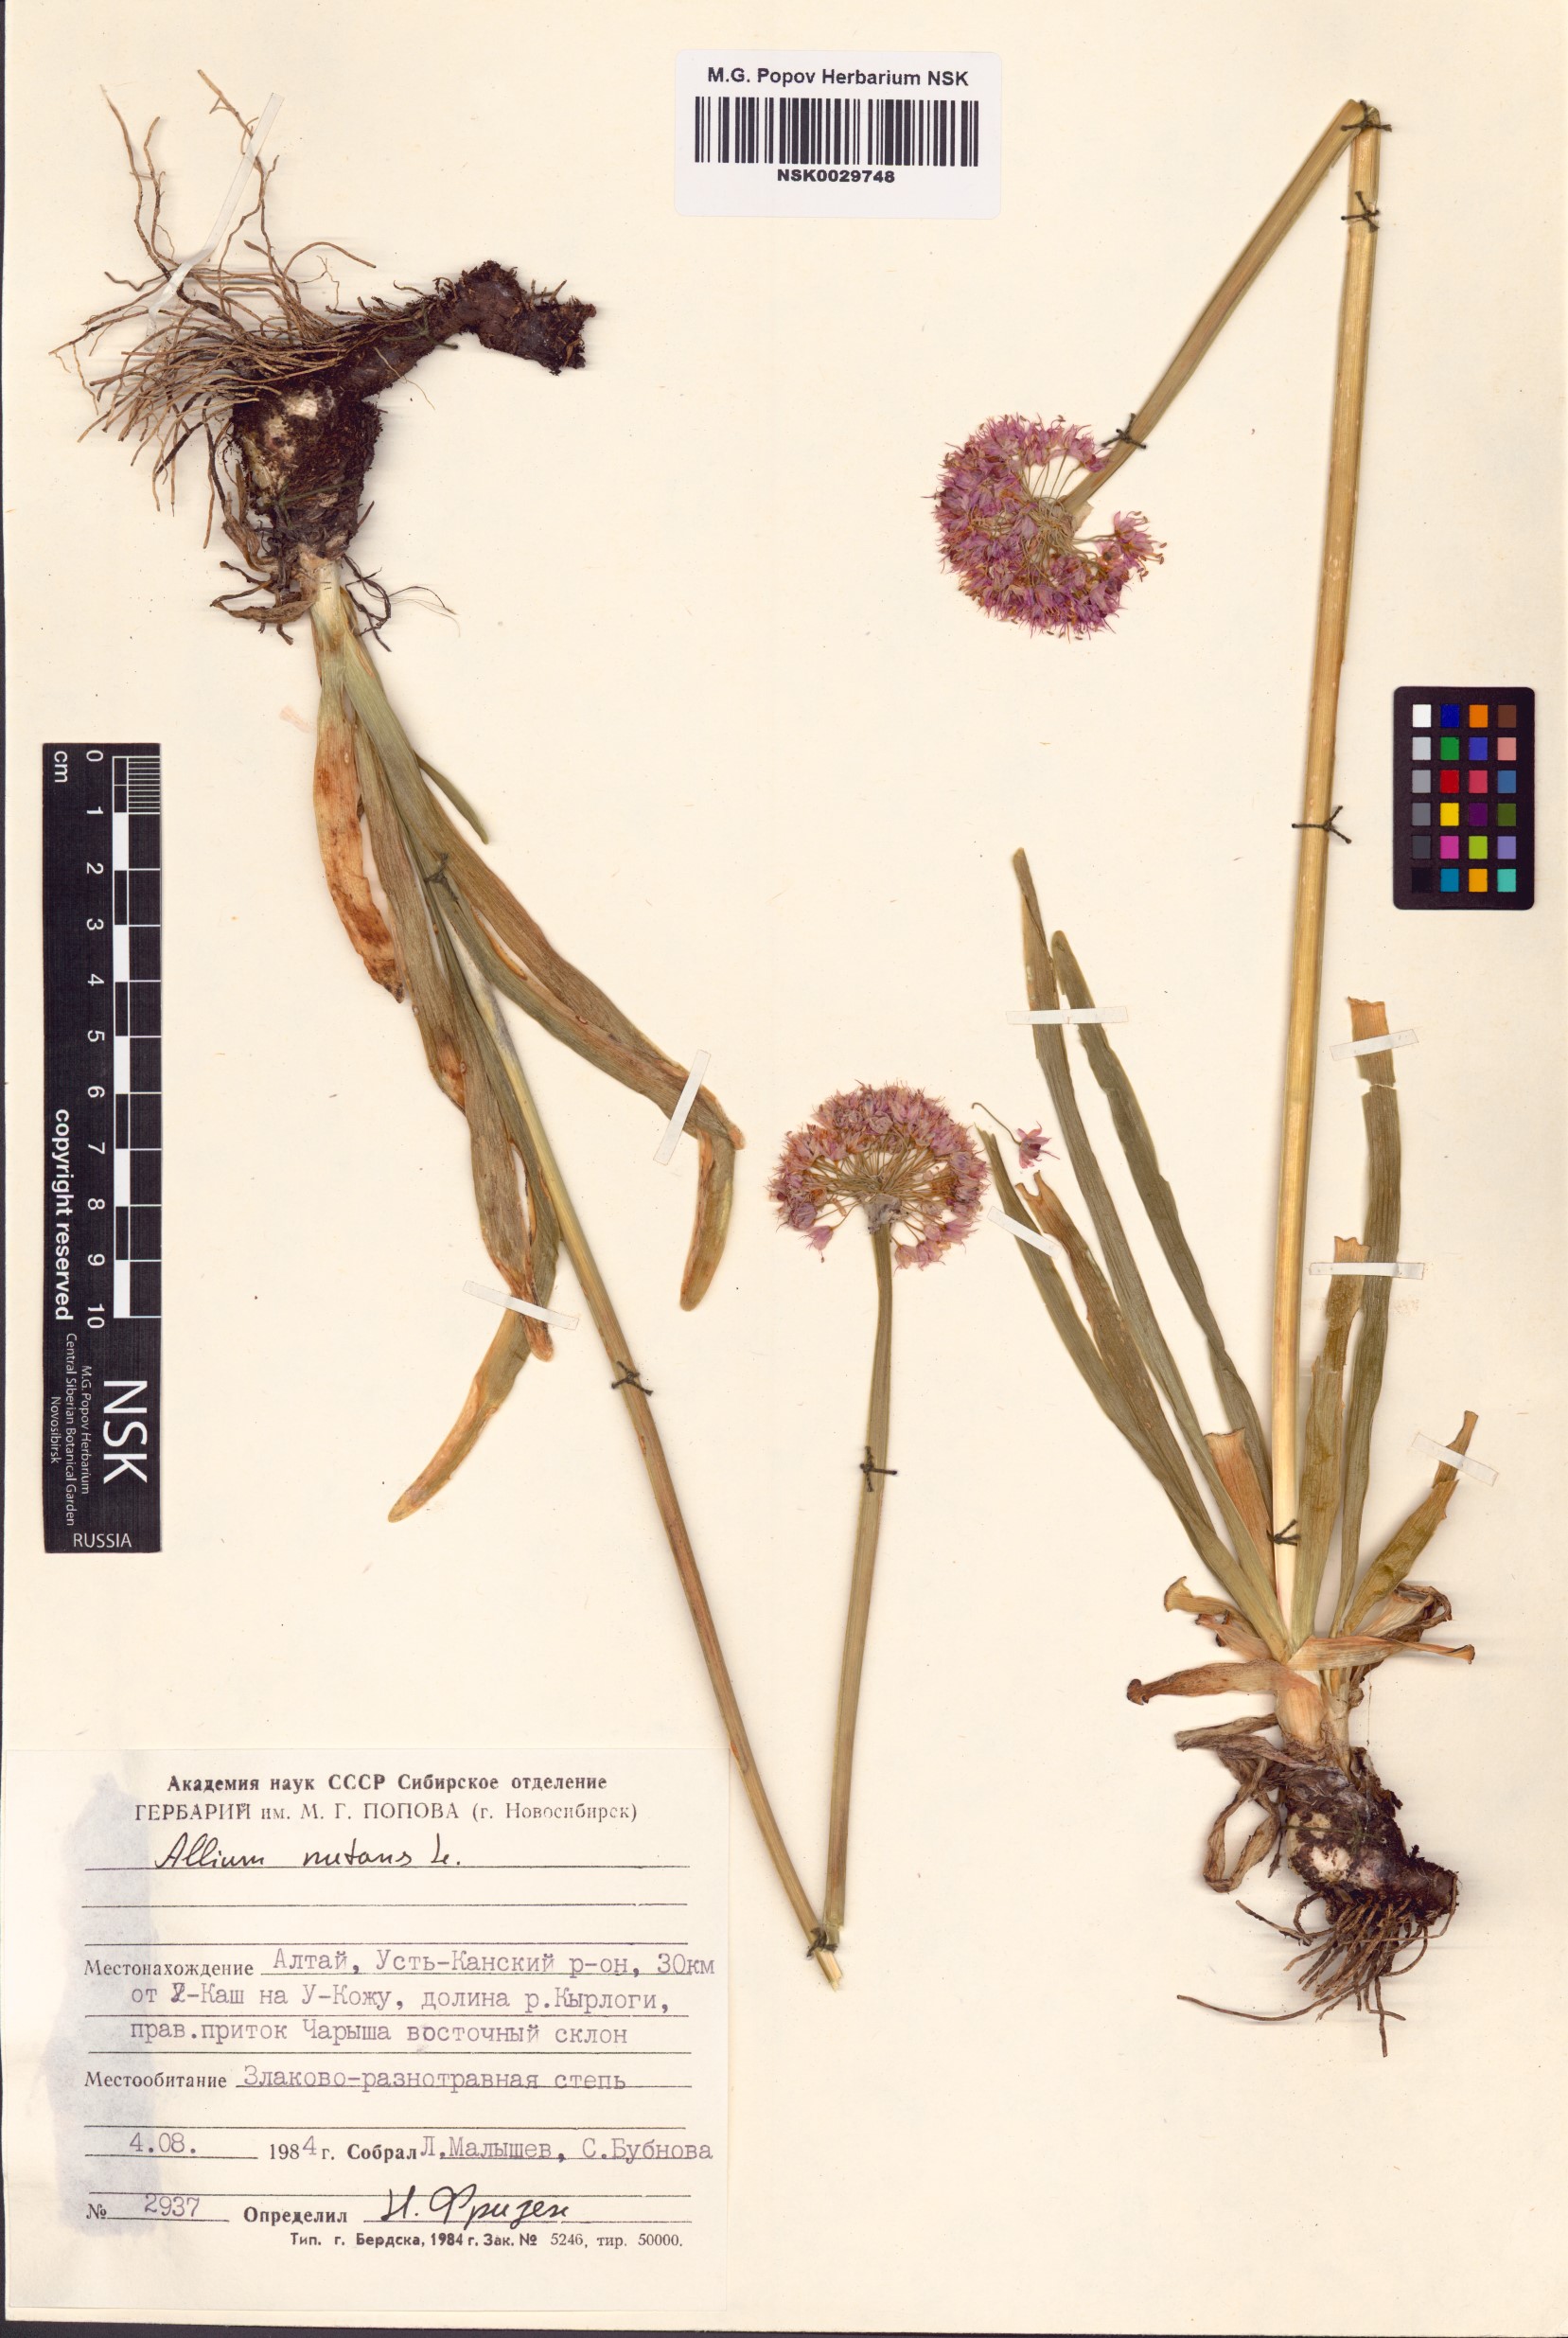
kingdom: Plantae
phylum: Tracheophyta
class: Liliopsida
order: Asparagales
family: Amaryllidaceae
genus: Allium
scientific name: Allium nutans
